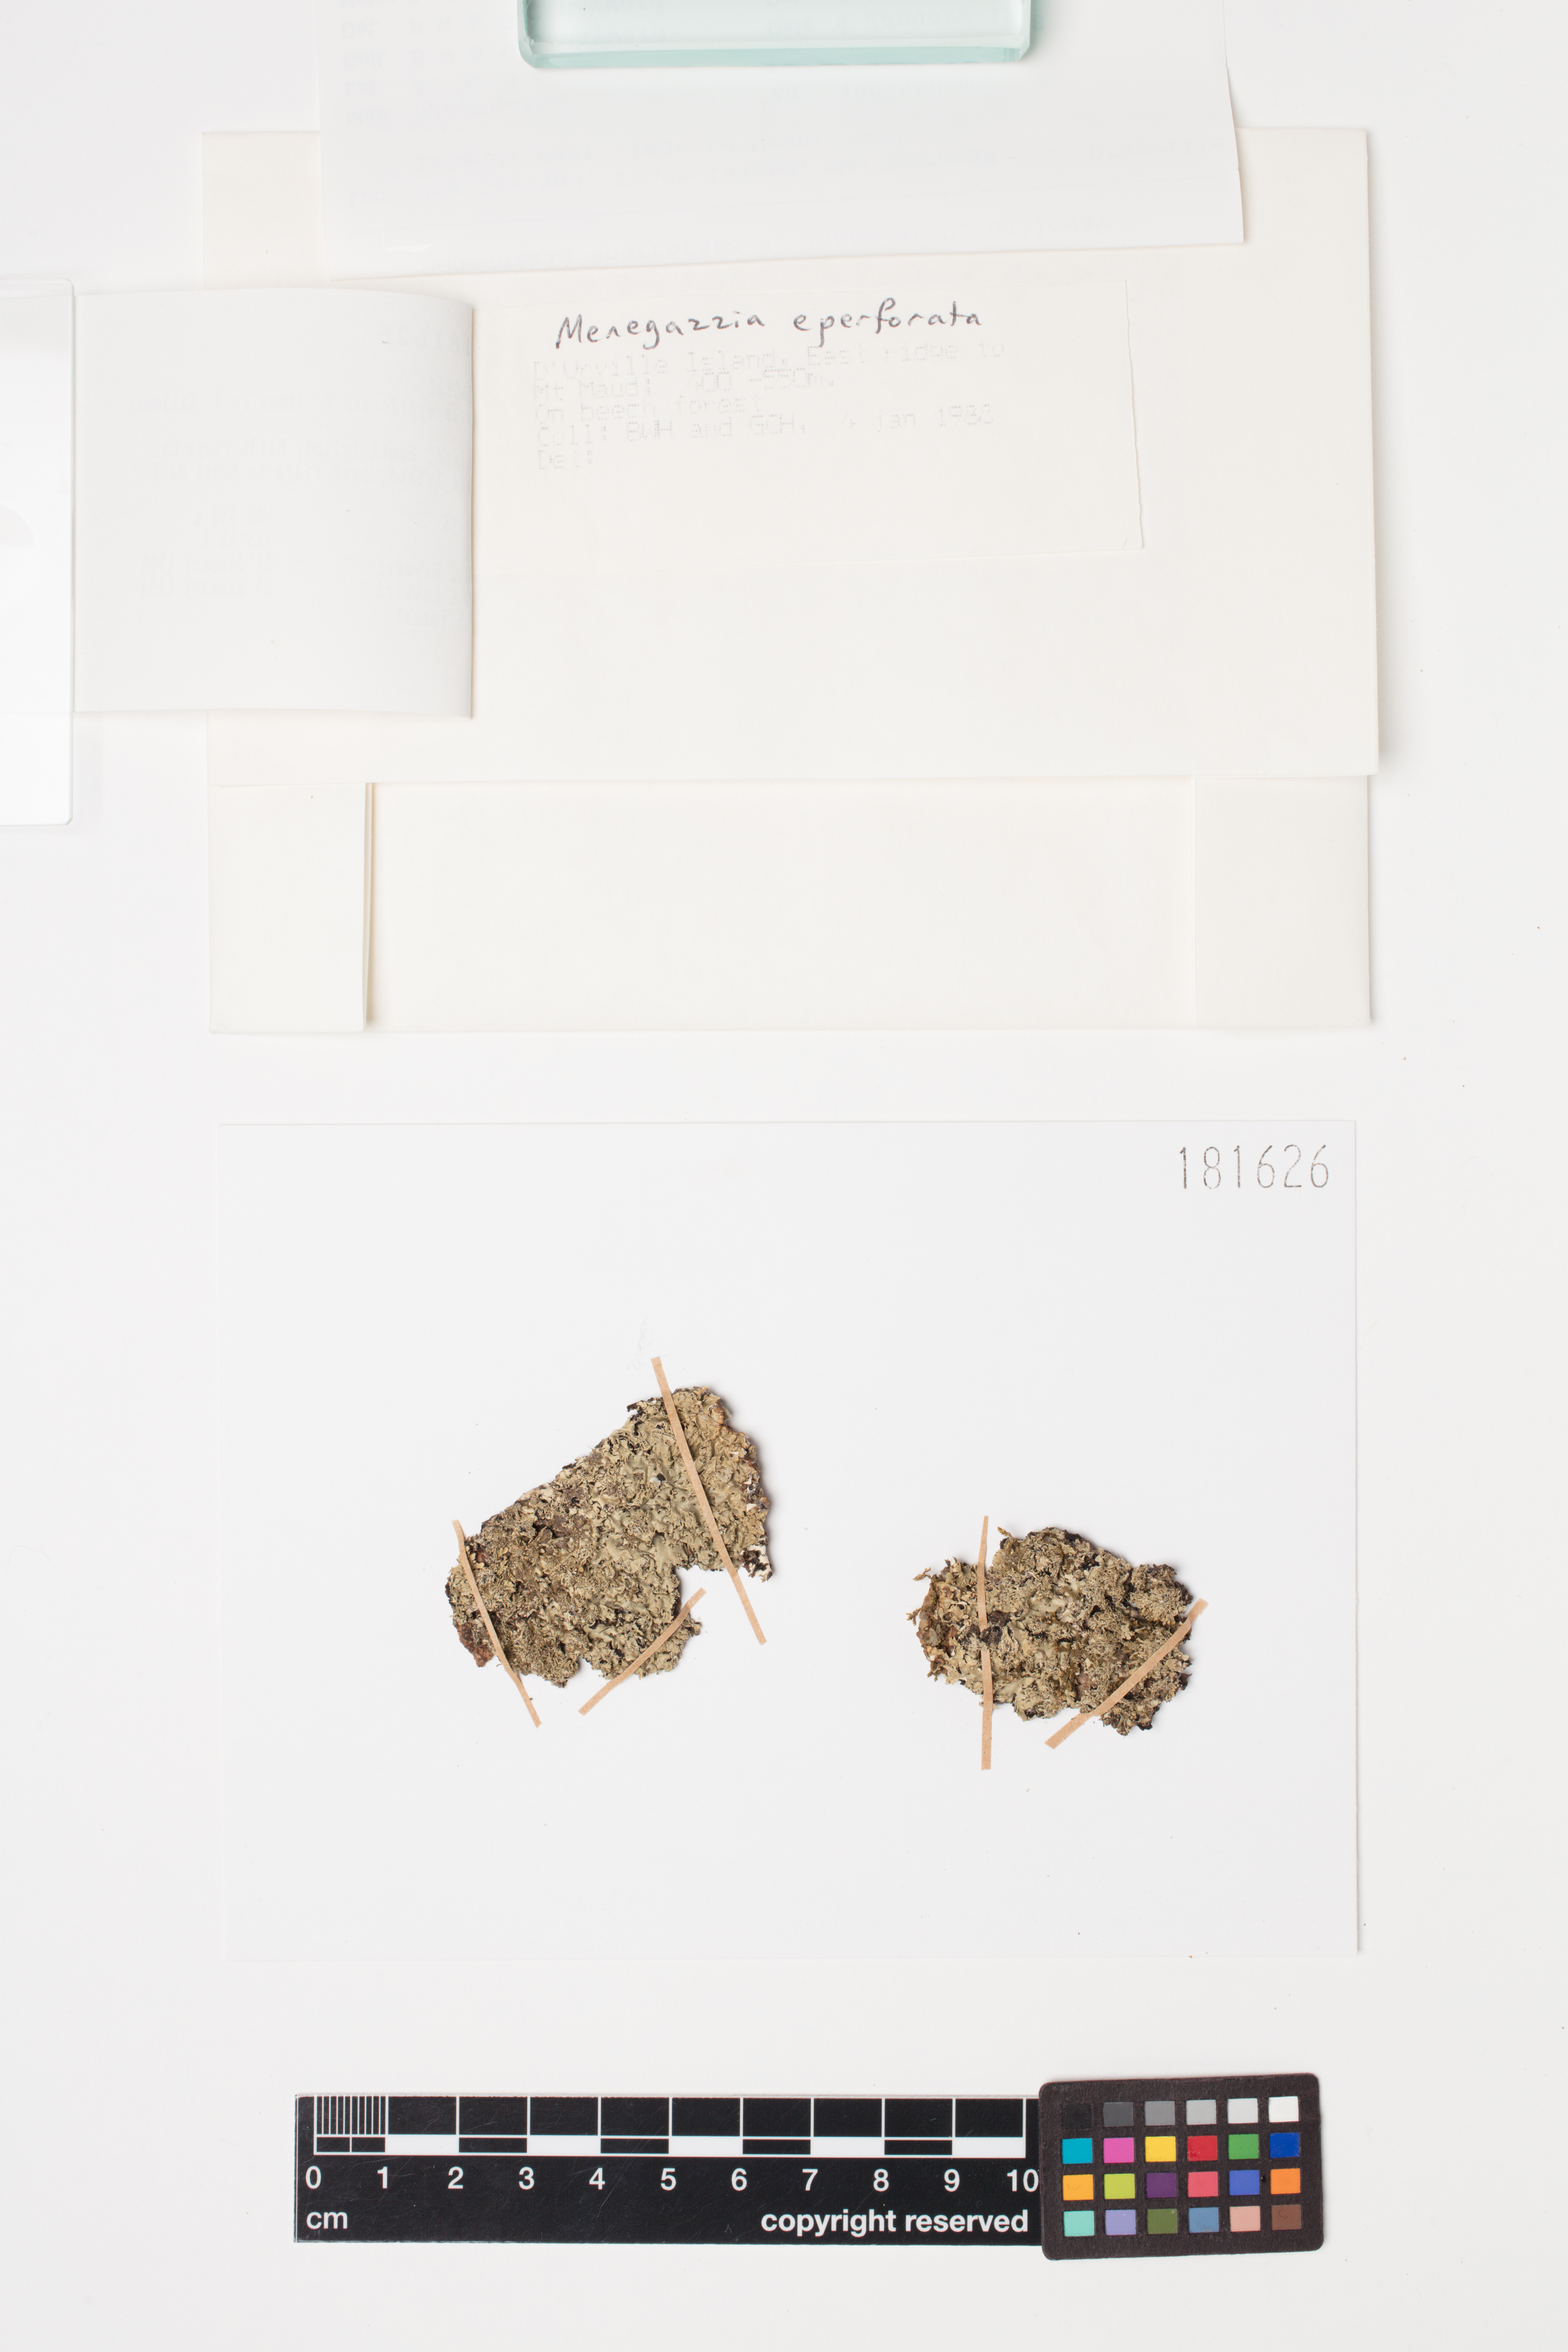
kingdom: Fungi
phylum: Ascomycota
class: Lecanoromycetes
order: Lecanorales
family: Parmeliaceae
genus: Menegazzia
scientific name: Menegazzia eperforata
